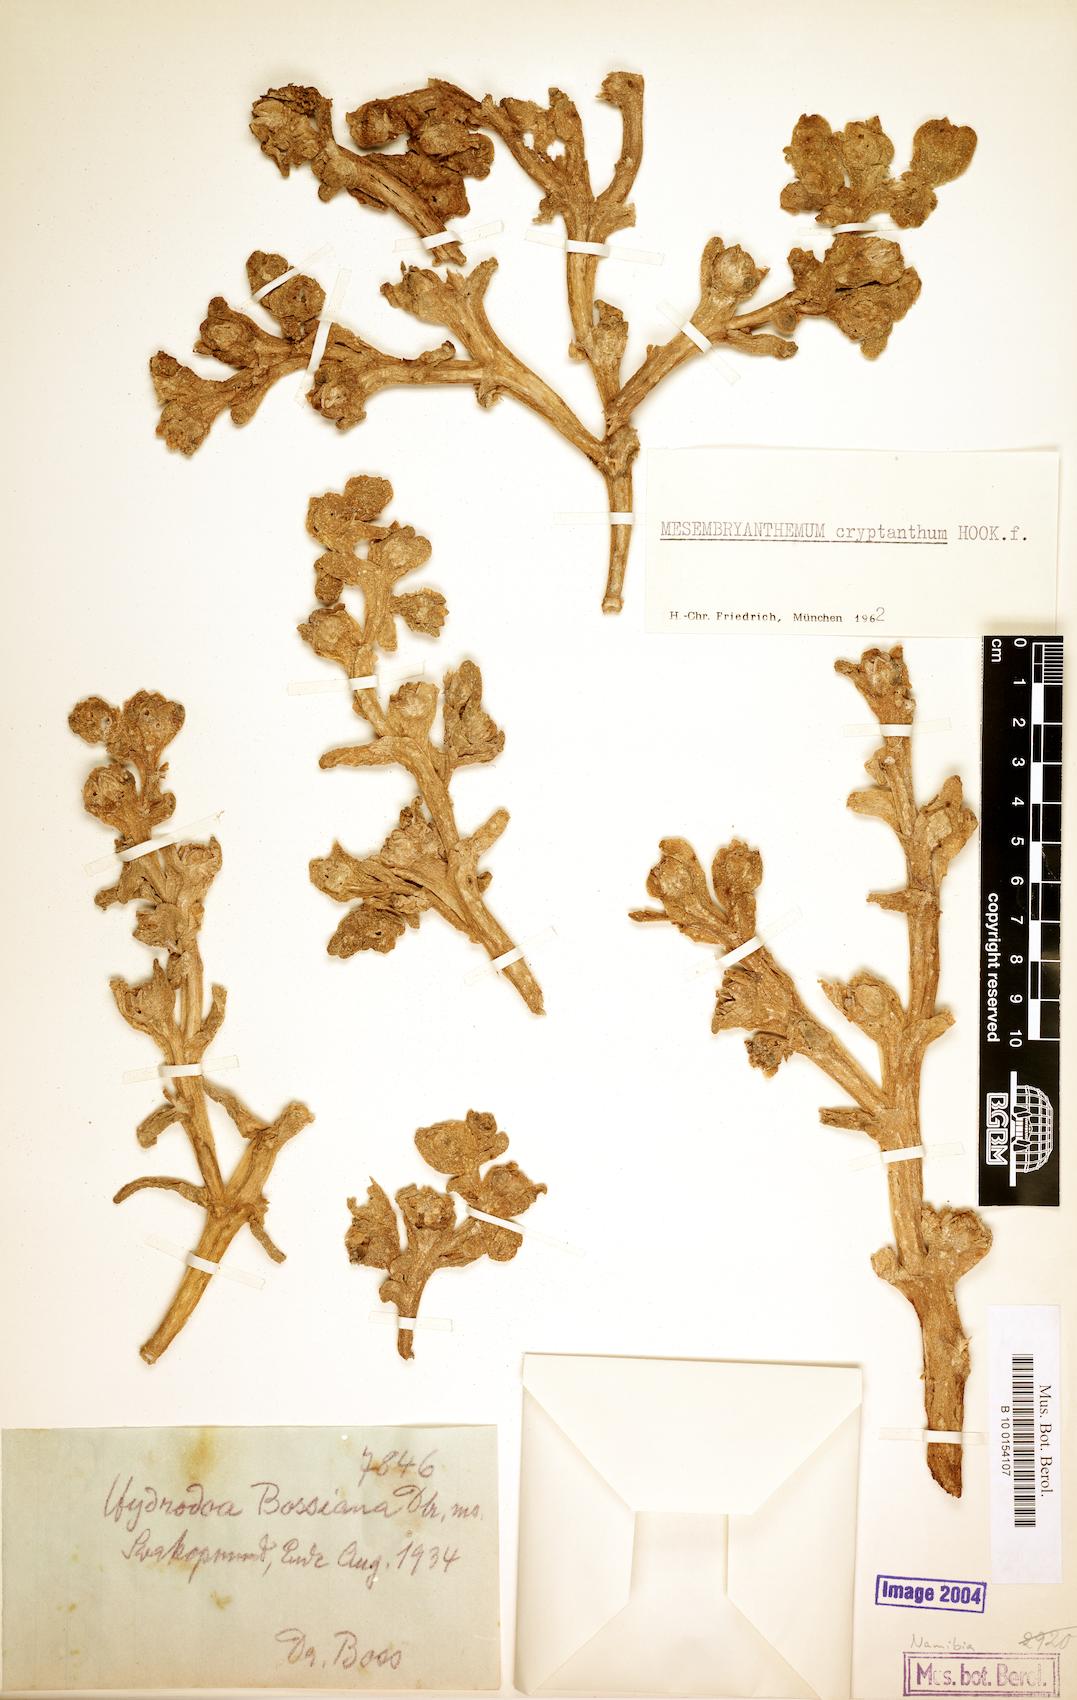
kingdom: Plantae
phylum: Tracheophyta
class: Magnoliopsida
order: Caryophyllales
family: Aizoaceae
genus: Mesembryanthemum
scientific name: Mesembryanthemum cryptanthum
